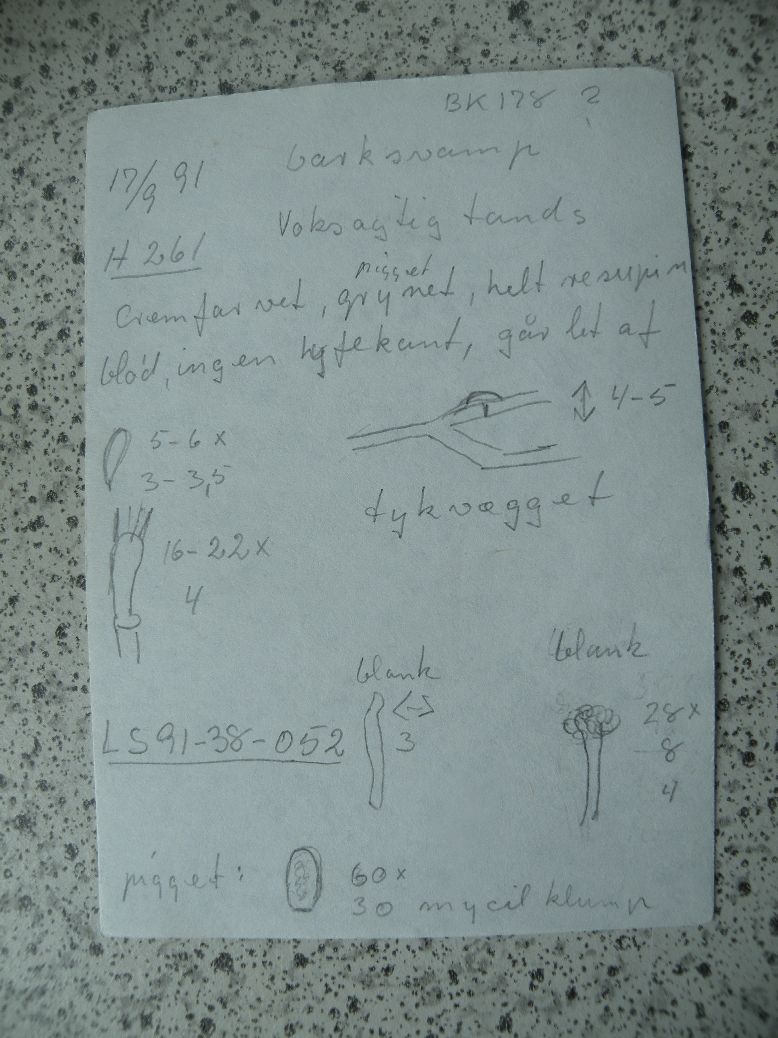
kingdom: Fungi
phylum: Basidiomycota
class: Agaricomycetes
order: Hymenochaetales
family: Rickenellaceae
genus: Resinicium
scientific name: Resinicium bicolor
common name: almindelig vokstand
